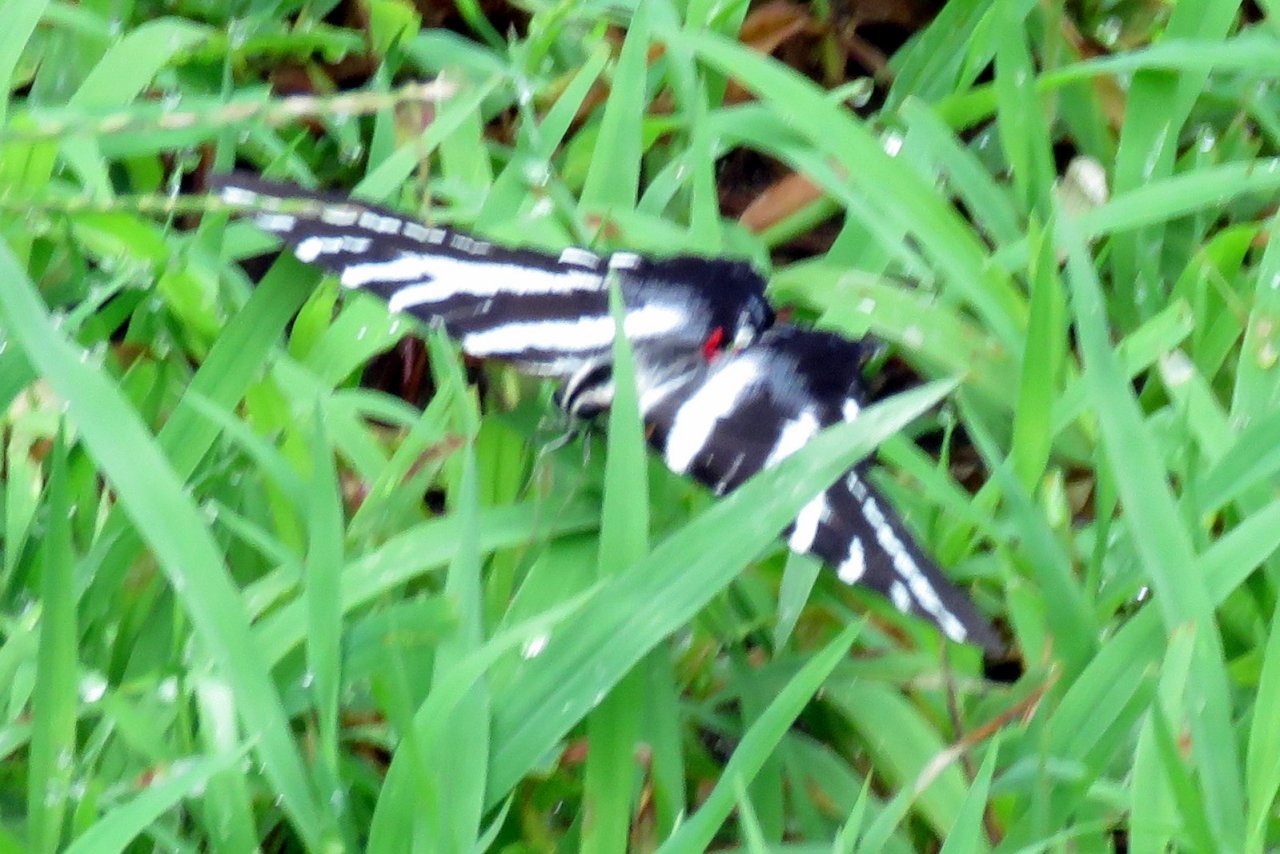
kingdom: Animalia
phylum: Arthropoda
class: Insecta
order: Lepidoptera
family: Papilionidae
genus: Protographium
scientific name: Protographium marcellus
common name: Zebra Swallowtail
